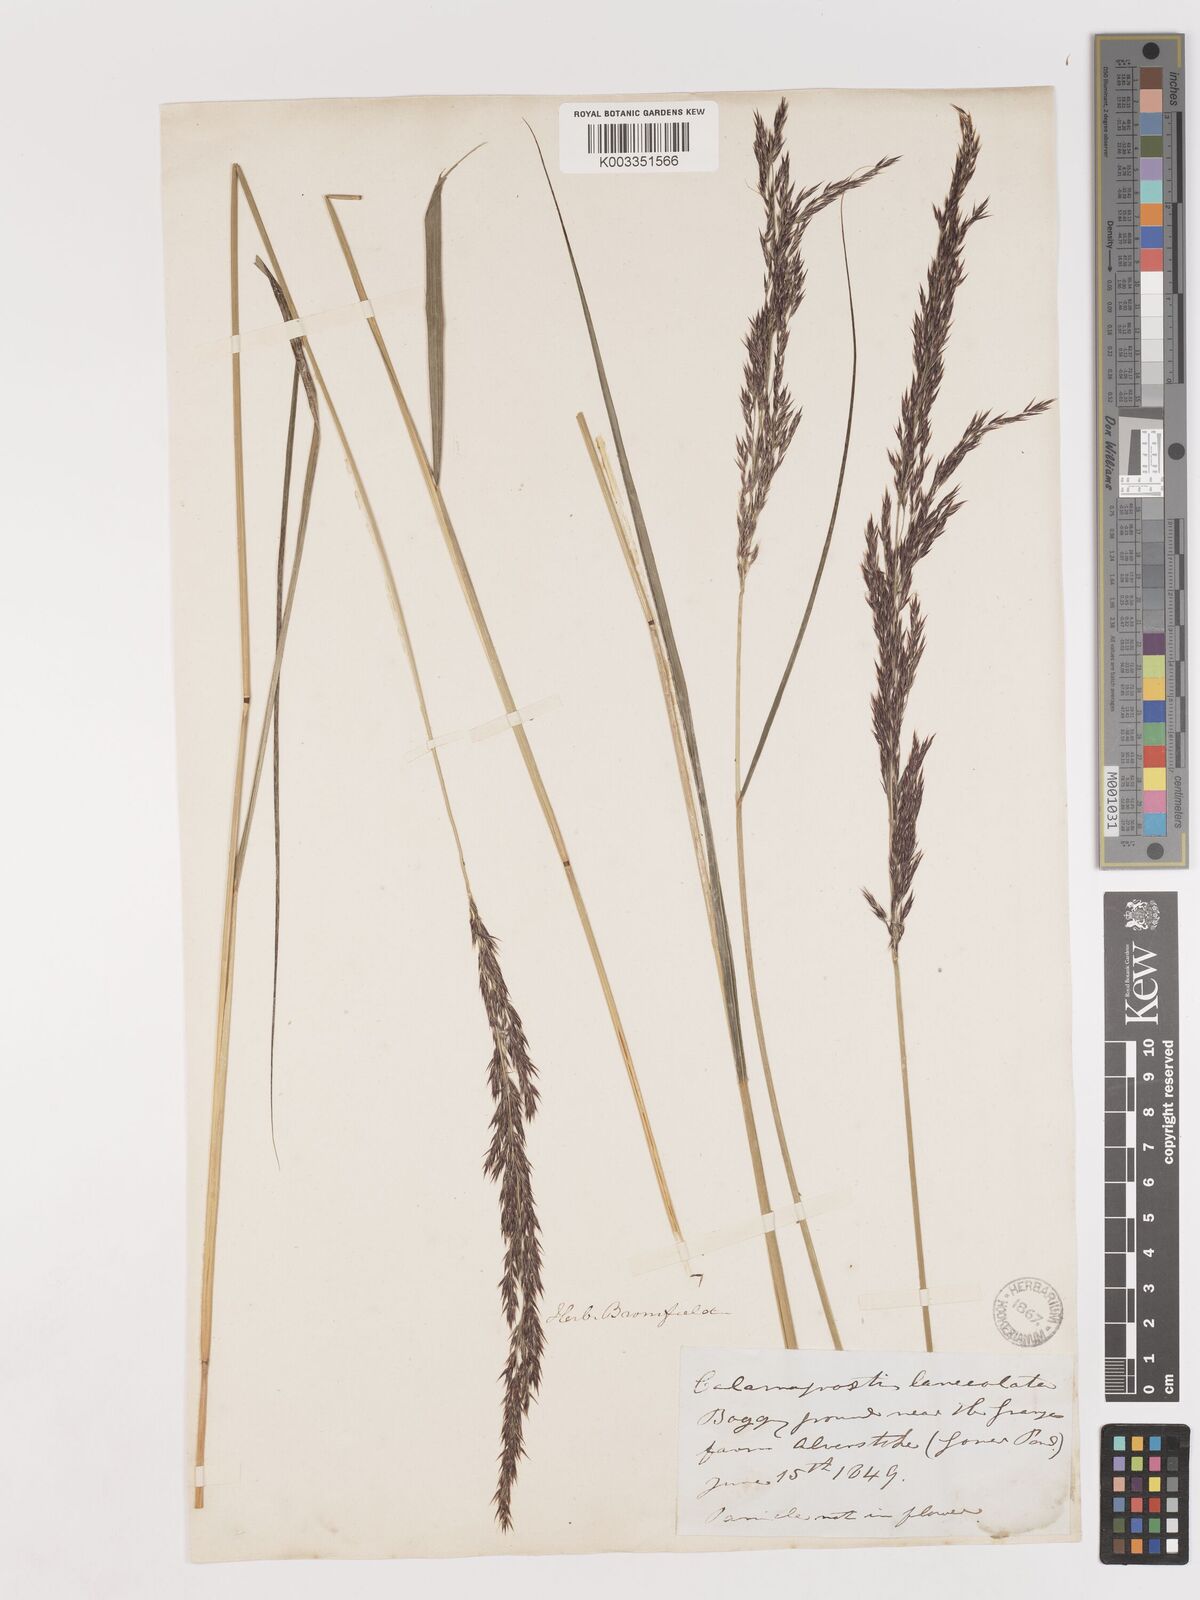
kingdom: Plantae
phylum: Tracheophyta
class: Liliopsida
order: Poales
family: Poaceae
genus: Calamagrostis
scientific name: Calamagrostis canescens
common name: Purple small-reed
